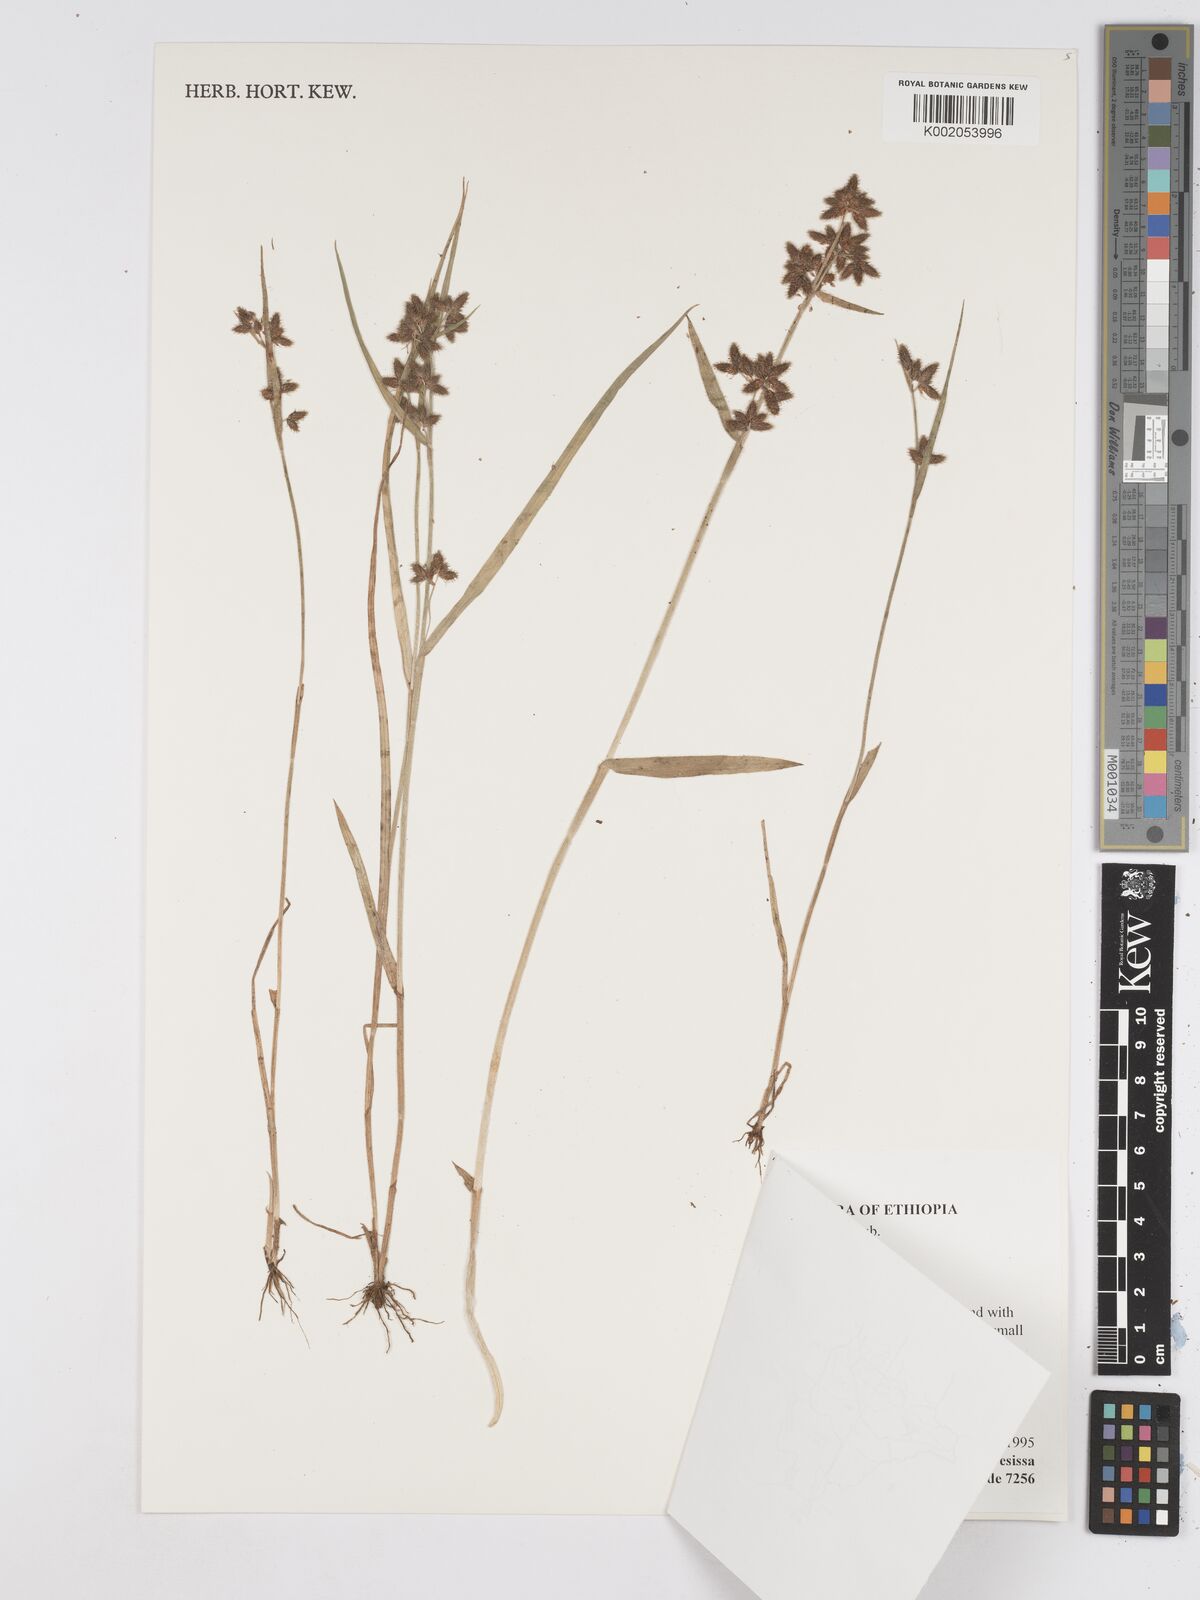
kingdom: Plantae
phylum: Tracheophyta
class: Liliopsida
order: Poales
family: Cyperaceae
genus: Fuirena
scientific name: Fuirena ciliaris
